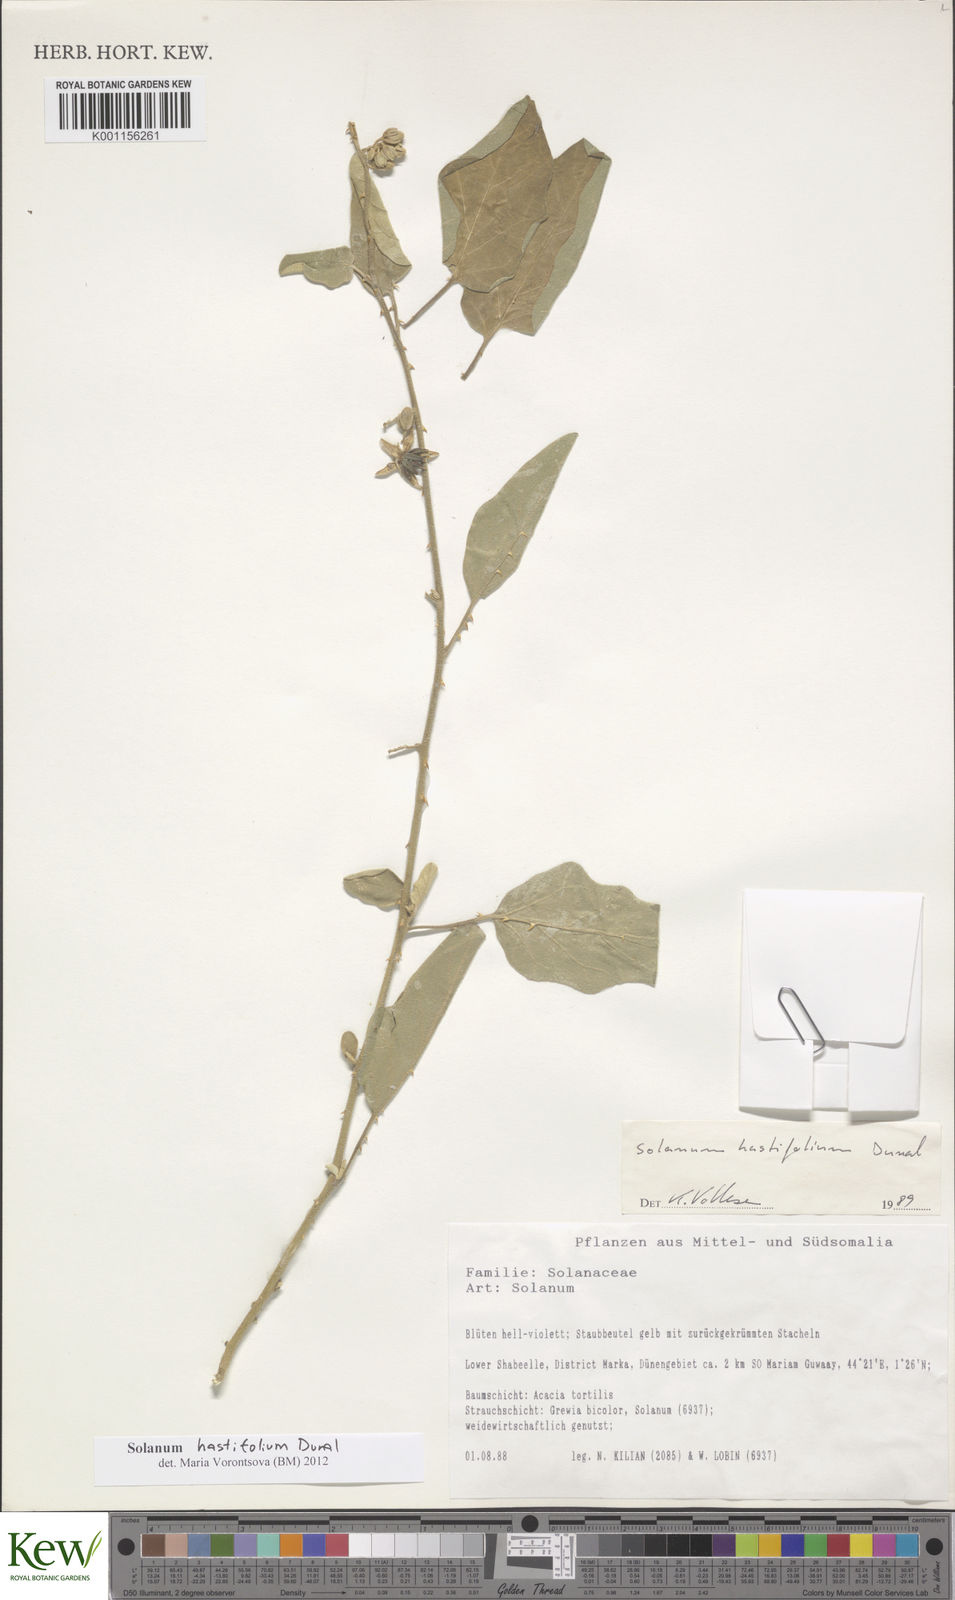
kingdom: Plantae
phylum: Tracheophyta
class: Magnoliopsida
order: Solanales
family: Solanaceae
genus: Solanum
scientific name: Solanum hastifolium
